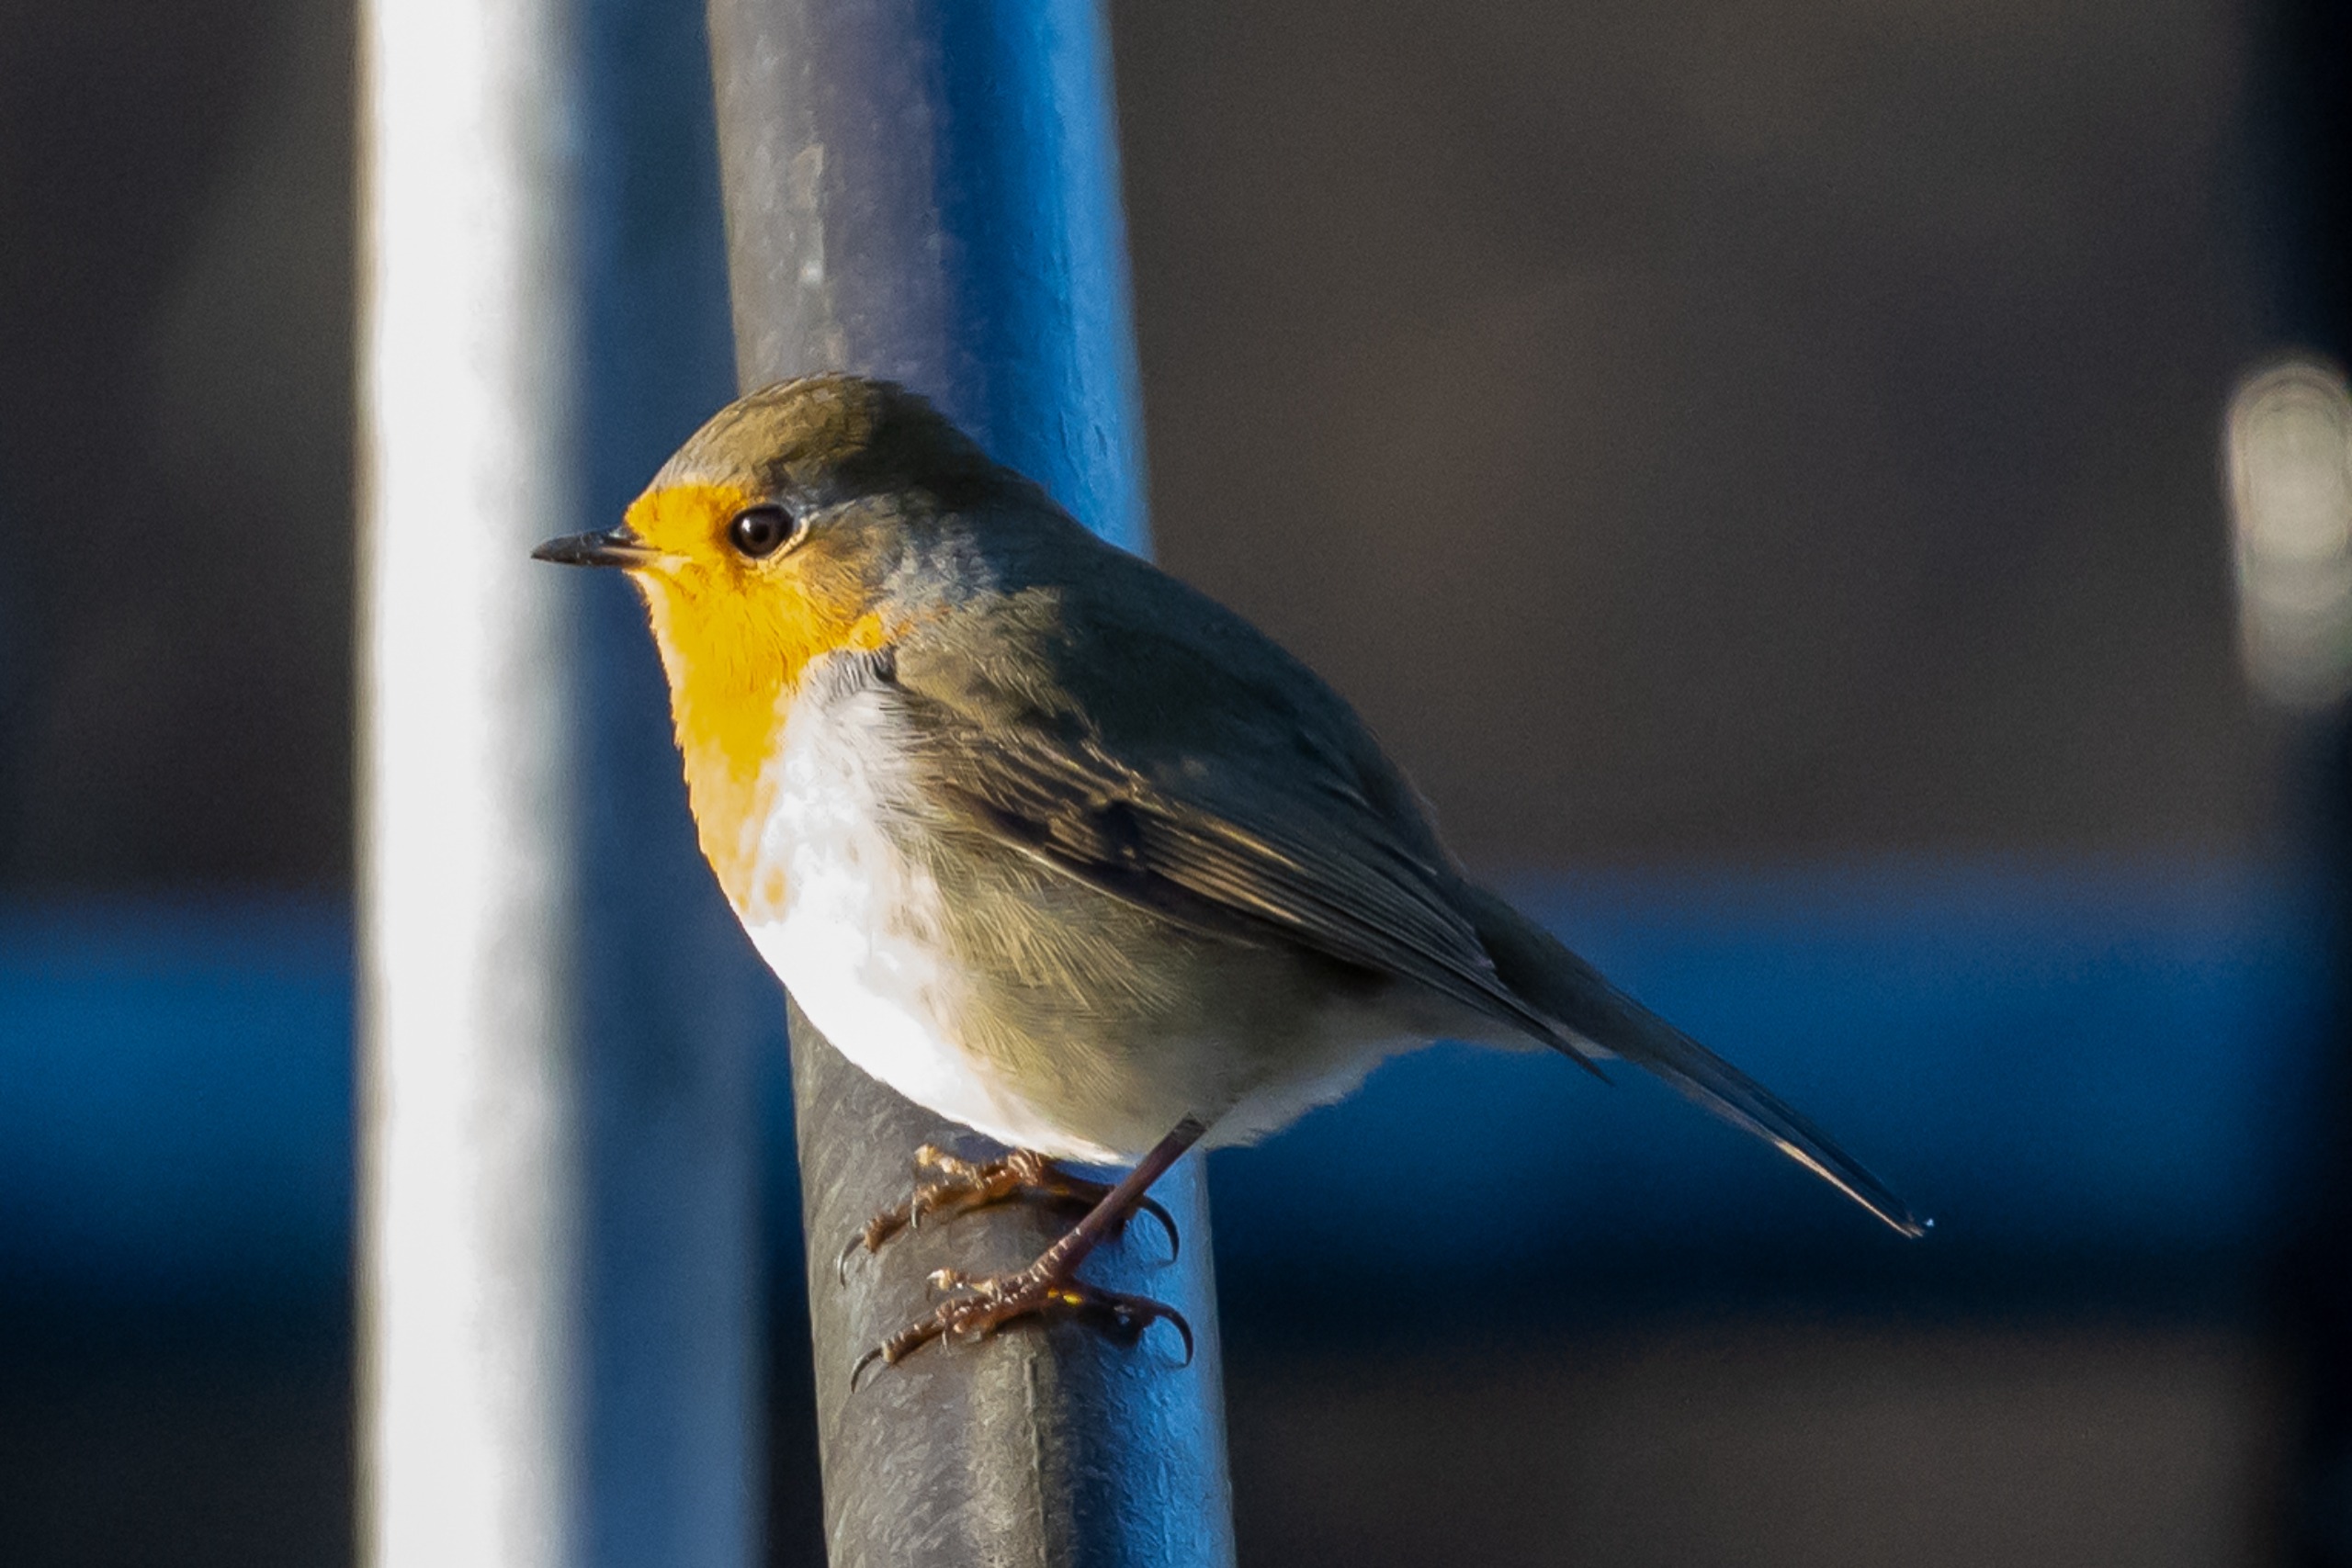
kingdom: Animalia
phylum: Chordata
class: Aves
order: Passeriformes
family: Muscicapidae
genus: Erithacus
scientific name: Erithacus rubecula
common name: Rødhals/rødkælk
